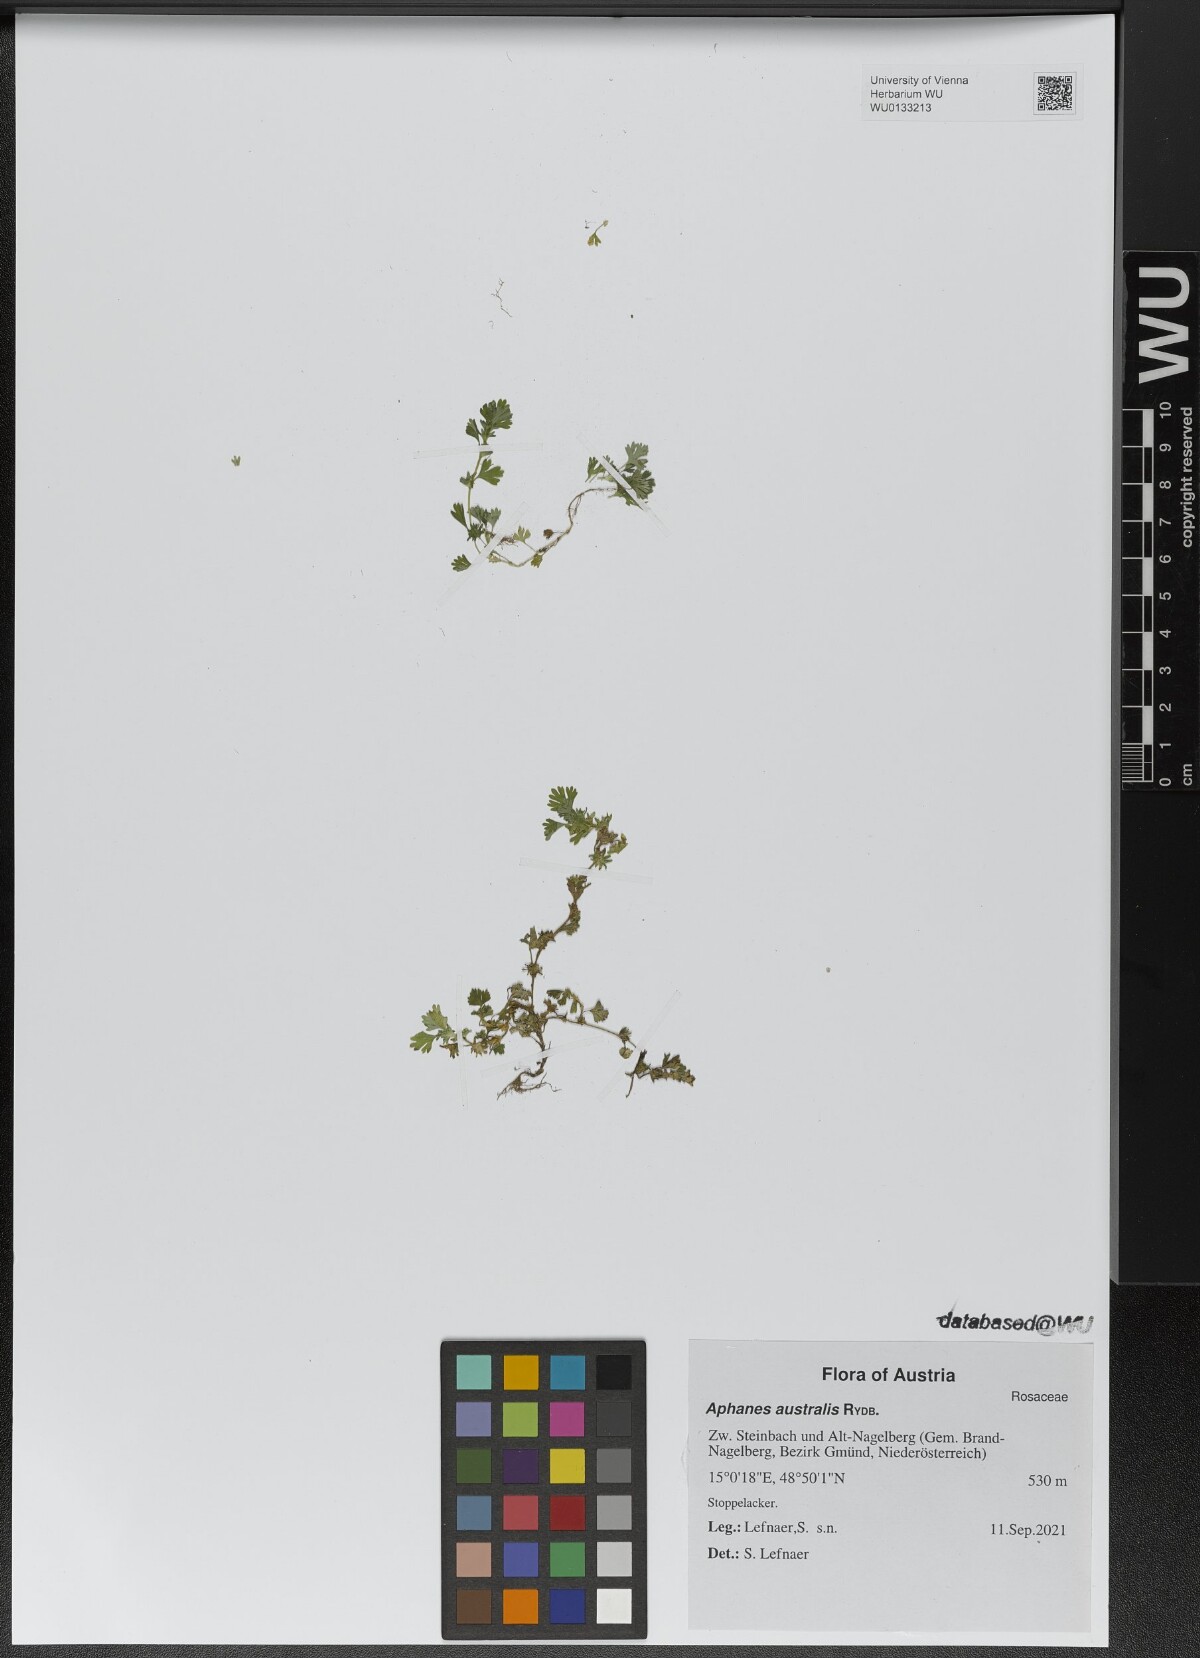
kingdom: Plantae
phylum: Tracheophyta
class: Magnoliopsida
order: Rosales
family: Rosaceae
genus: Aphanes
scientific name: Aphanes australis
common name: Slender parsley-piert
